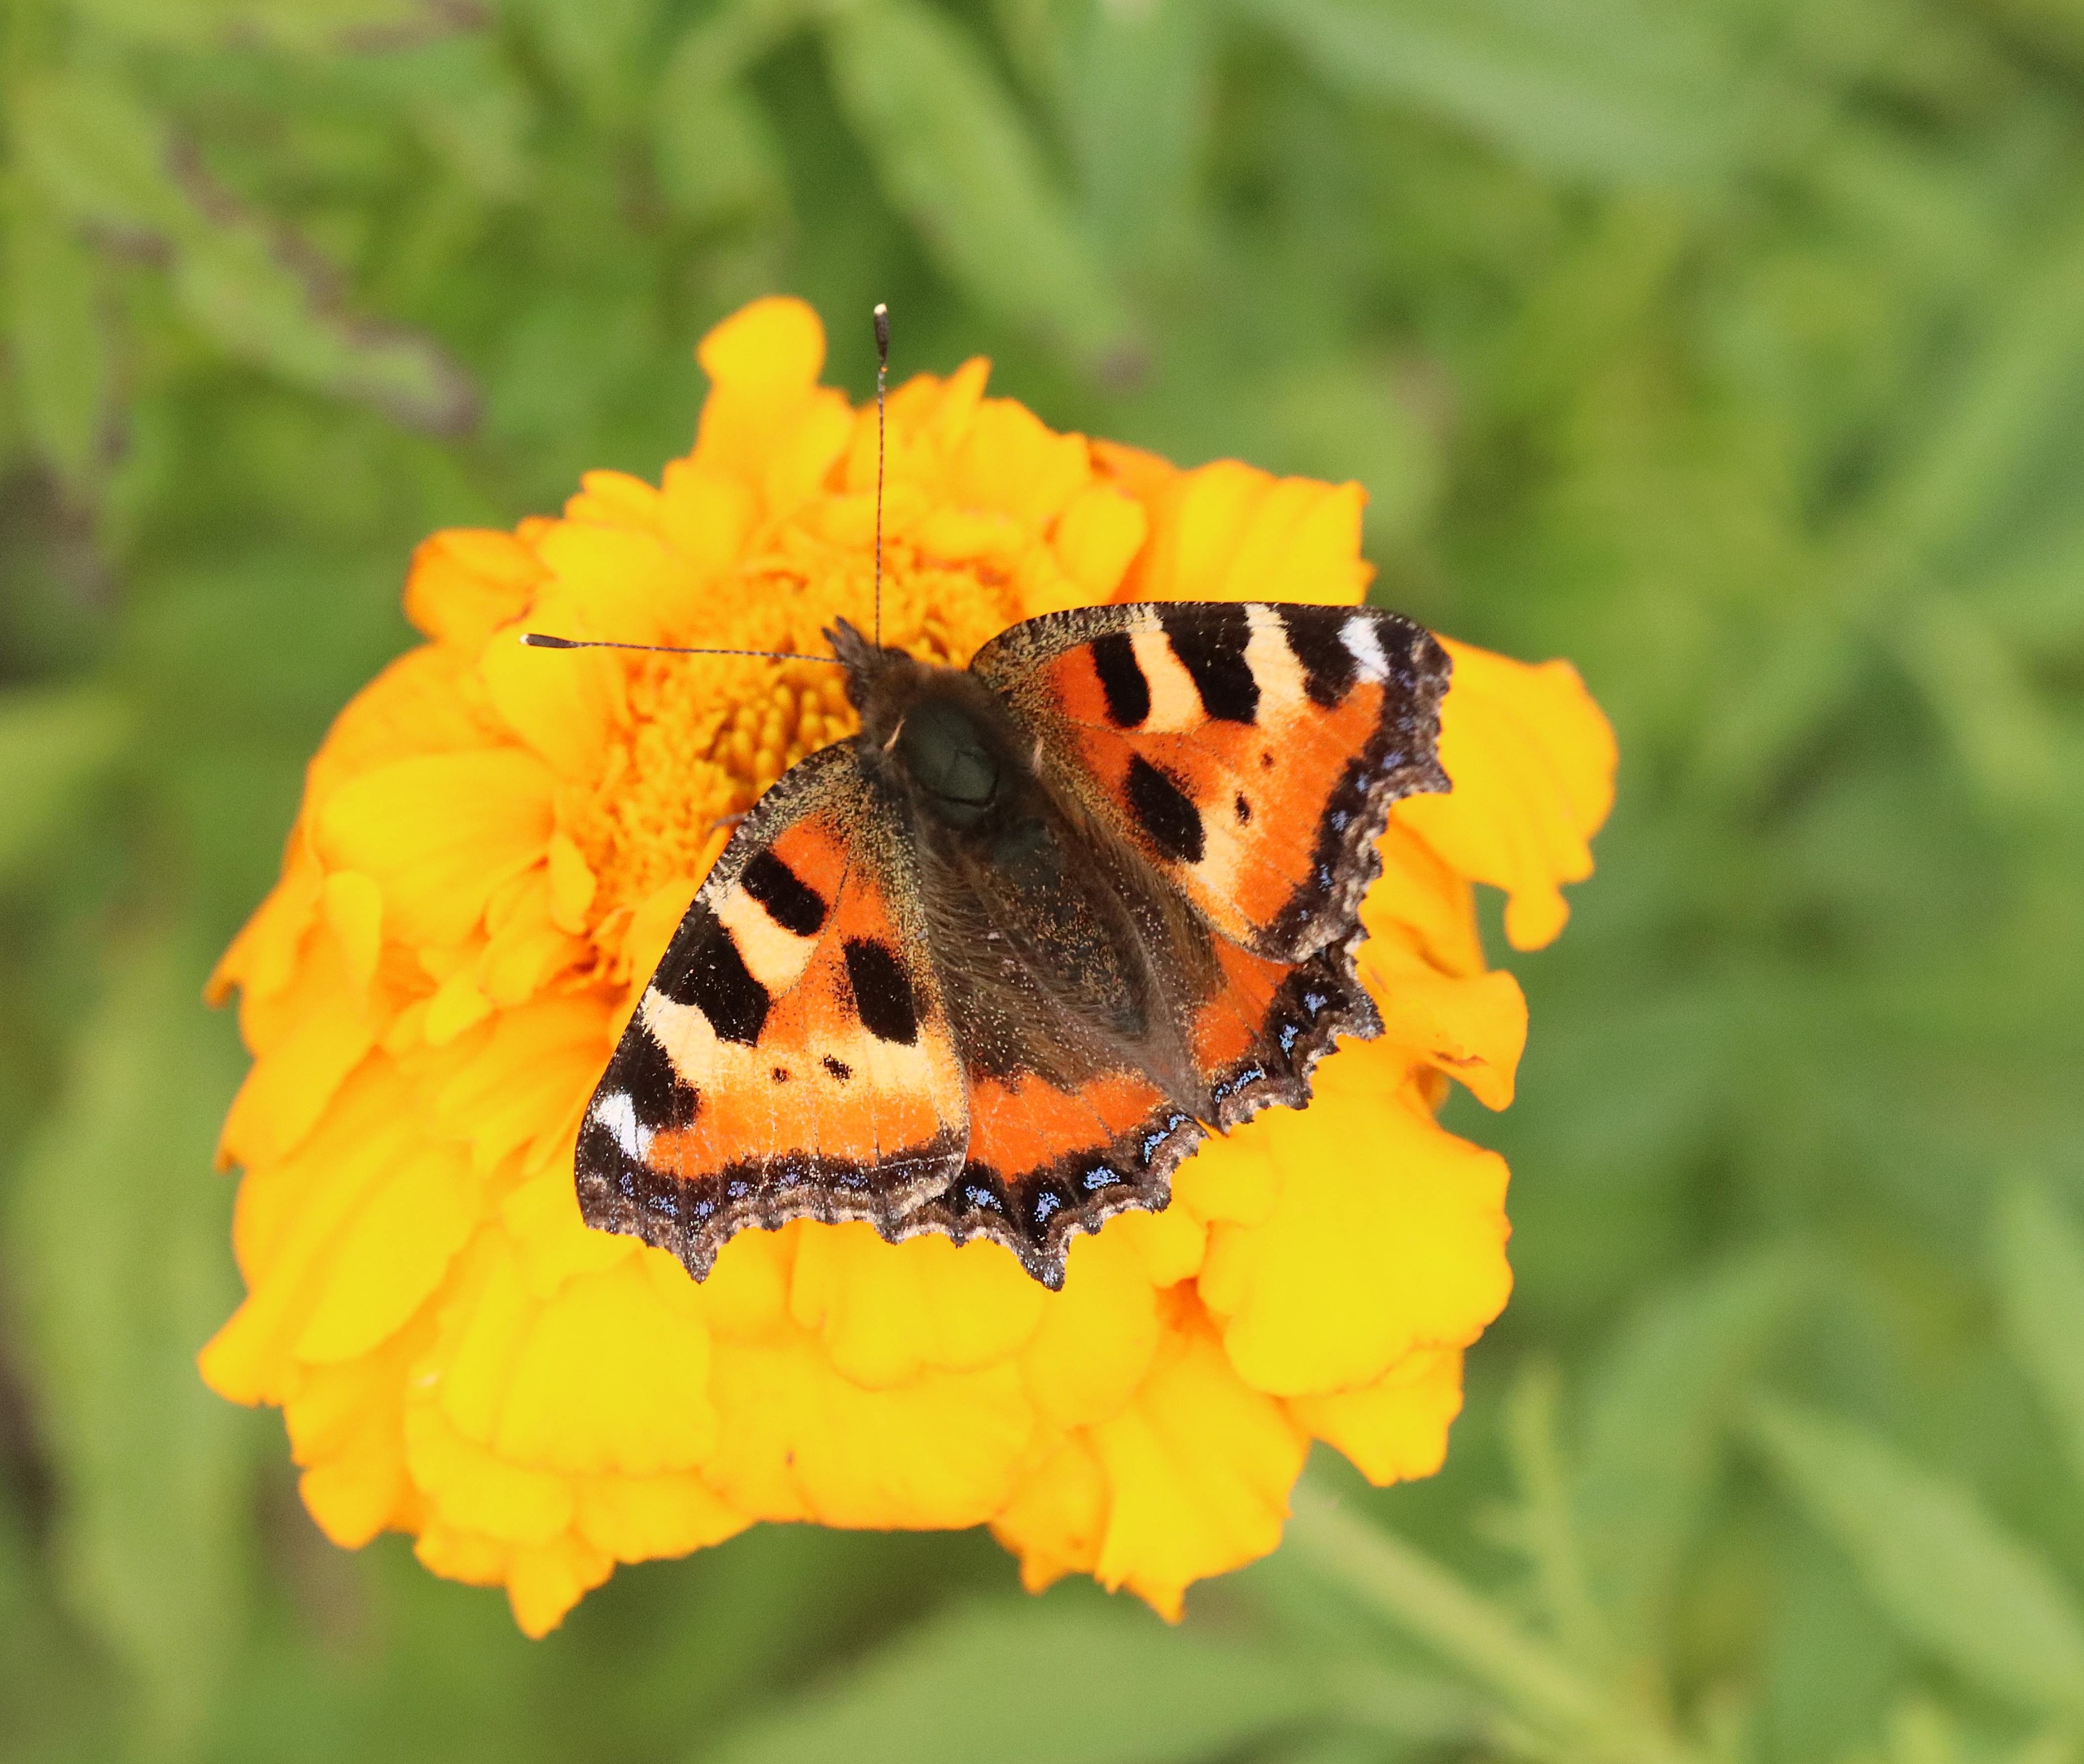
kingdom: Animalia
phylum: Arthropoda
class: Insecta
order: Lepidoptera
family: Nymphalidae
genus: Aglais
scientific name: Aglais urticae
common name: Nældens takvinge
